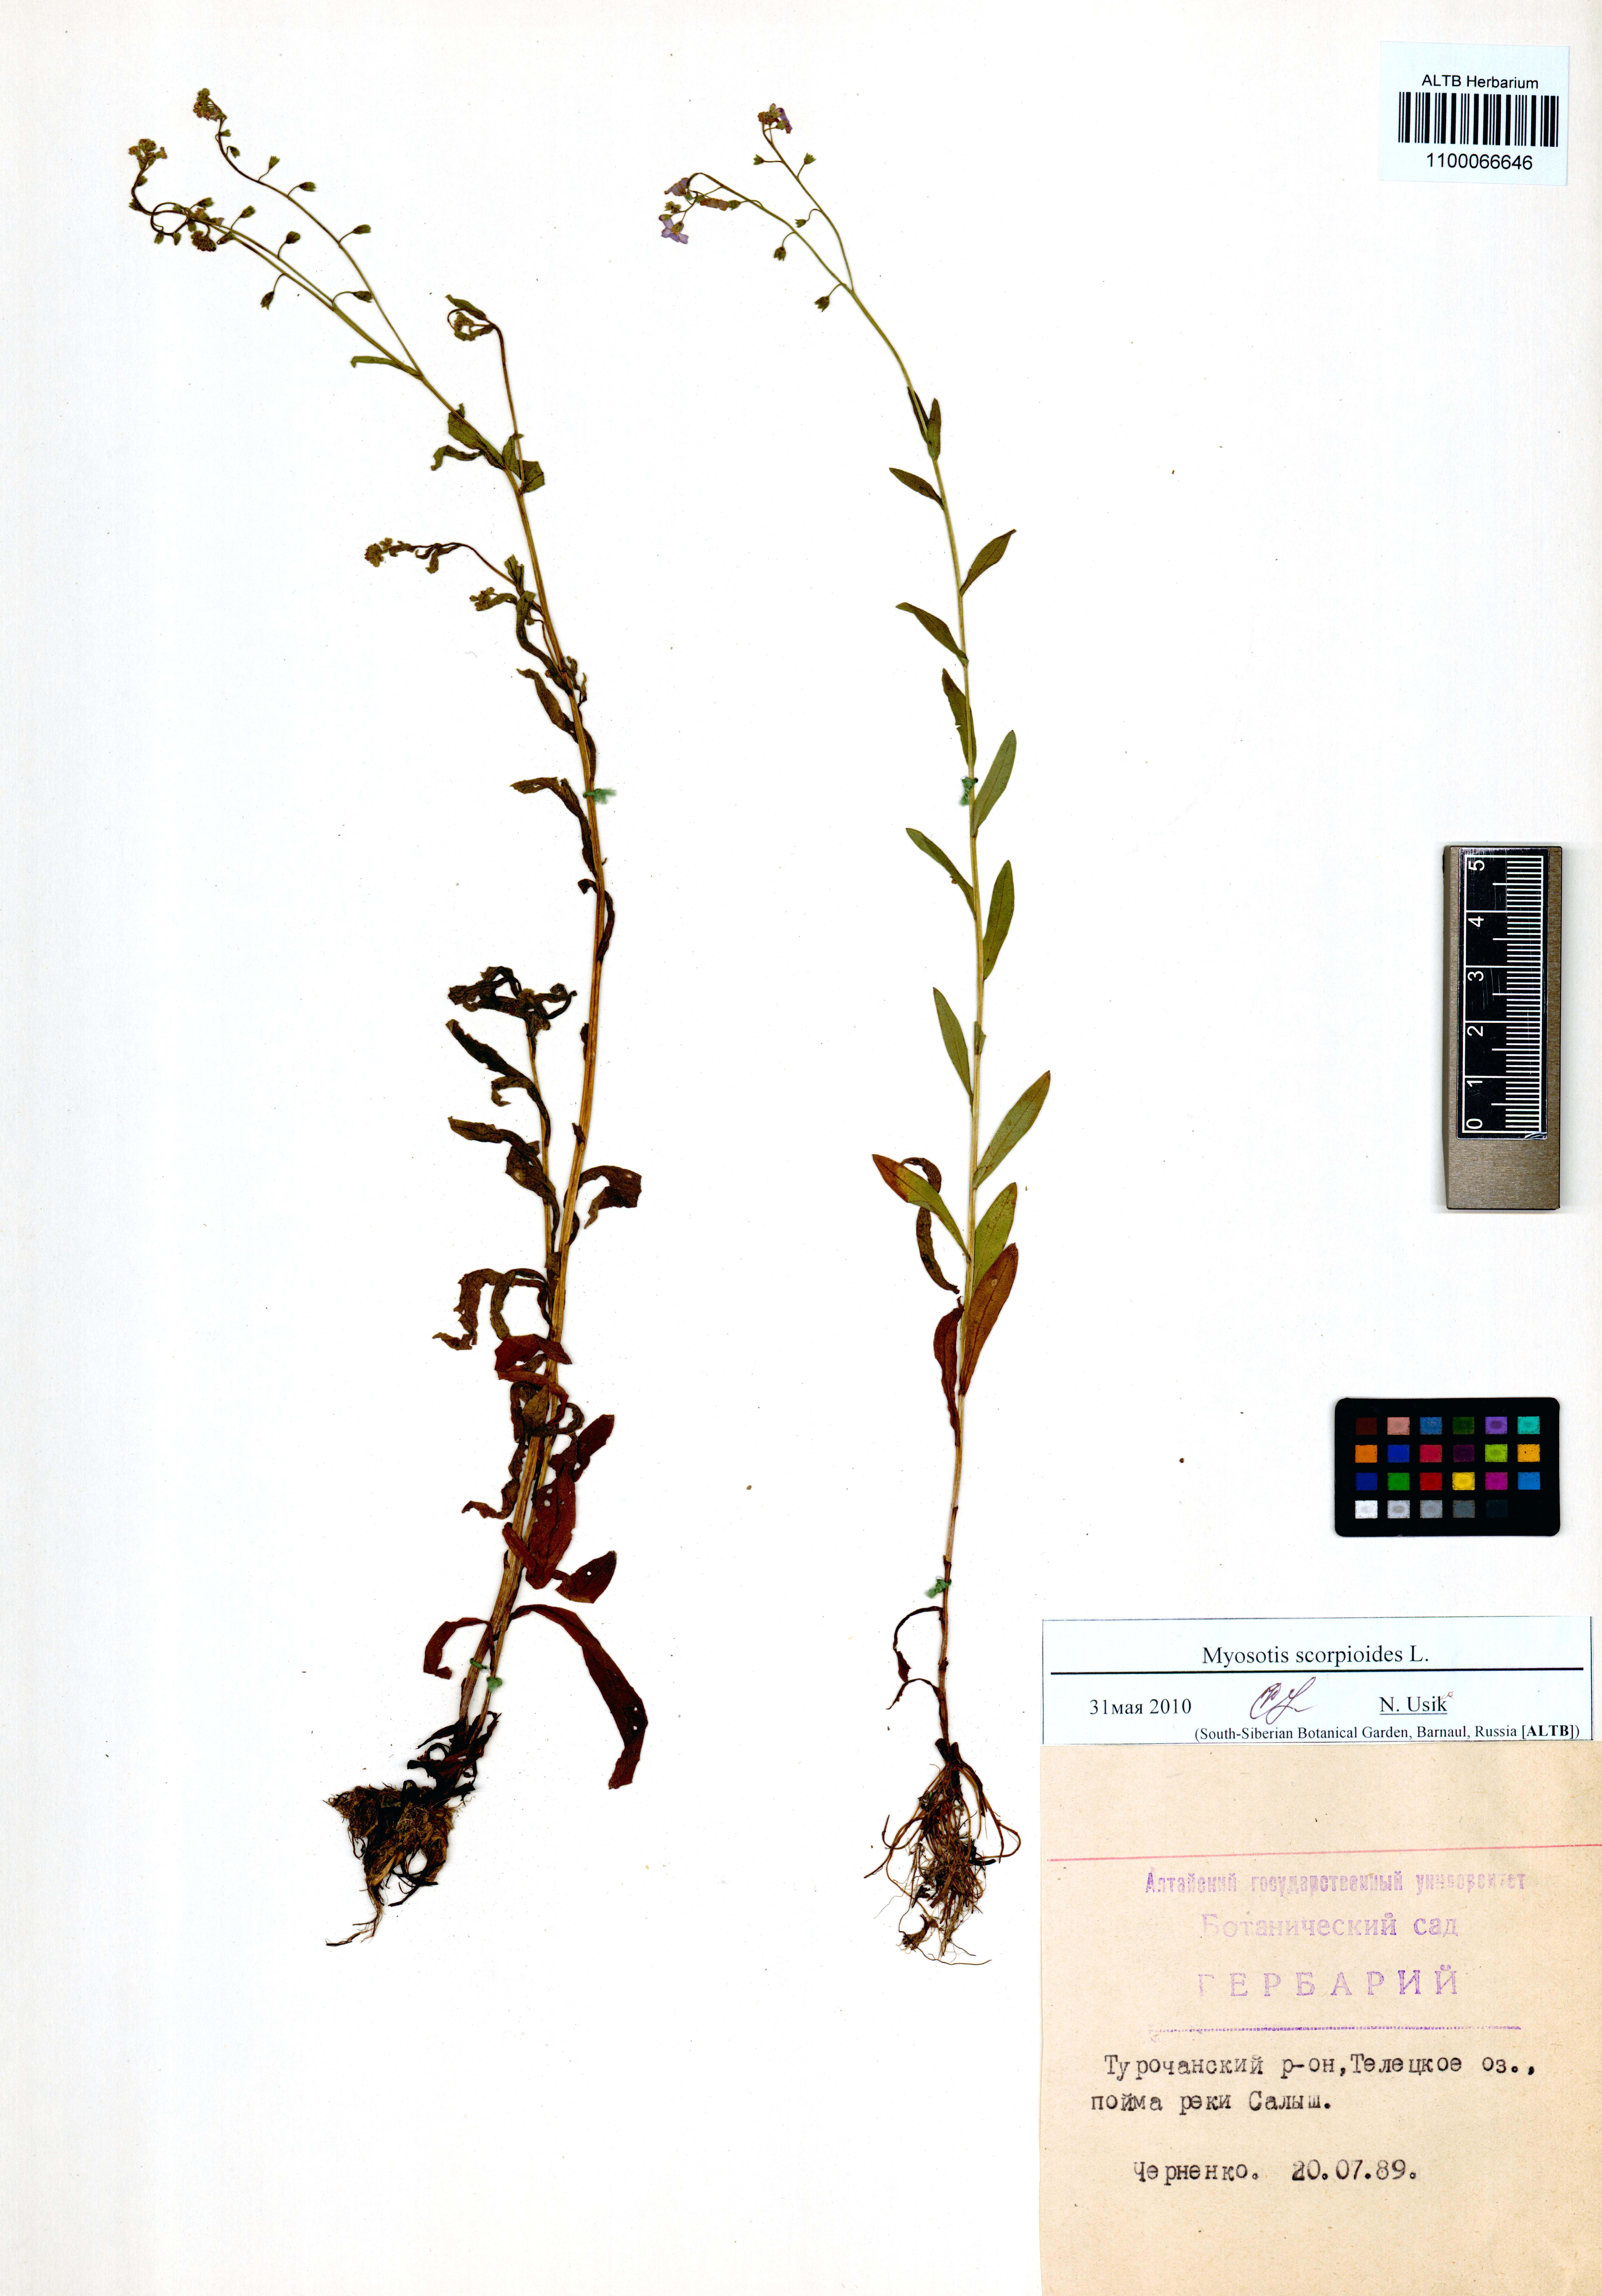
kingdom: Plantae
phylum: Tracheophyta
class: Magnoliopsida
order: Boraginales
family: Boraginaceae
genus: Myosotis
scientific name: Myosotis scorpioides
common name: Water forget-me-not
